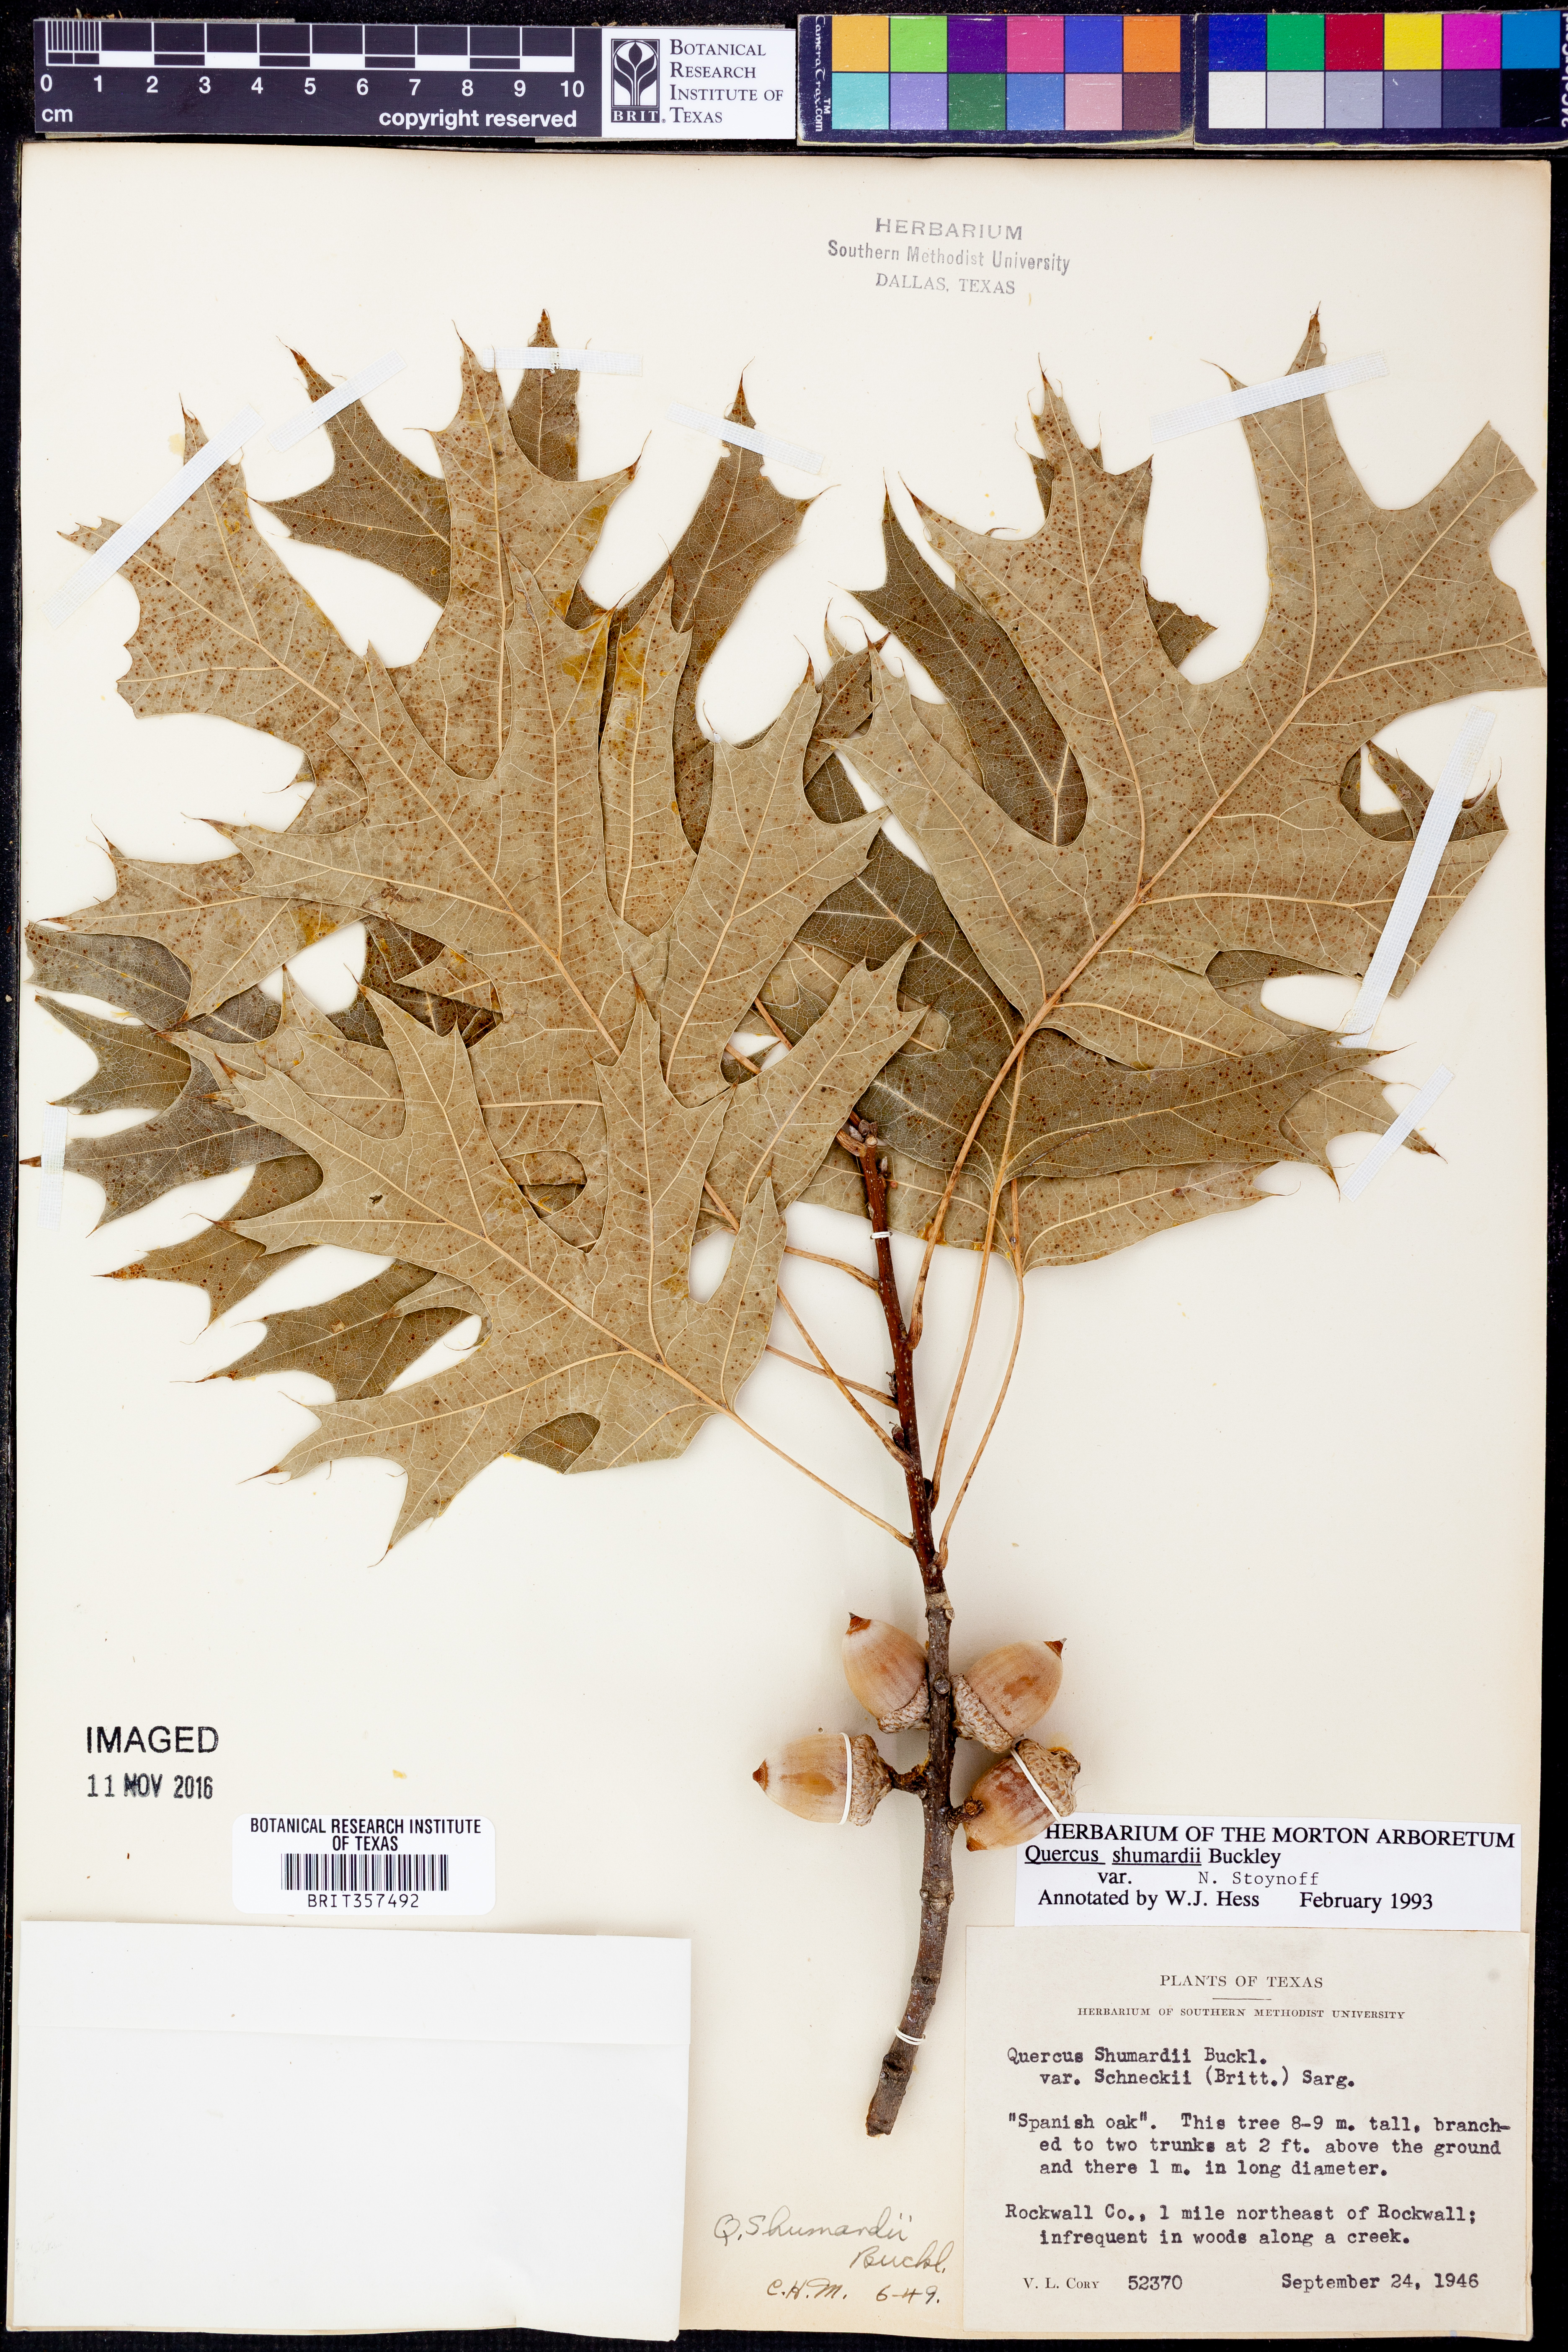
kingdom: Plantae
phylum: Tracheophyta
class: Magnoliopsida
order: Fagales
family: Fagaceae
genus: Quercus
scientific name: Quercus shumardii
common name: Shumard oak
